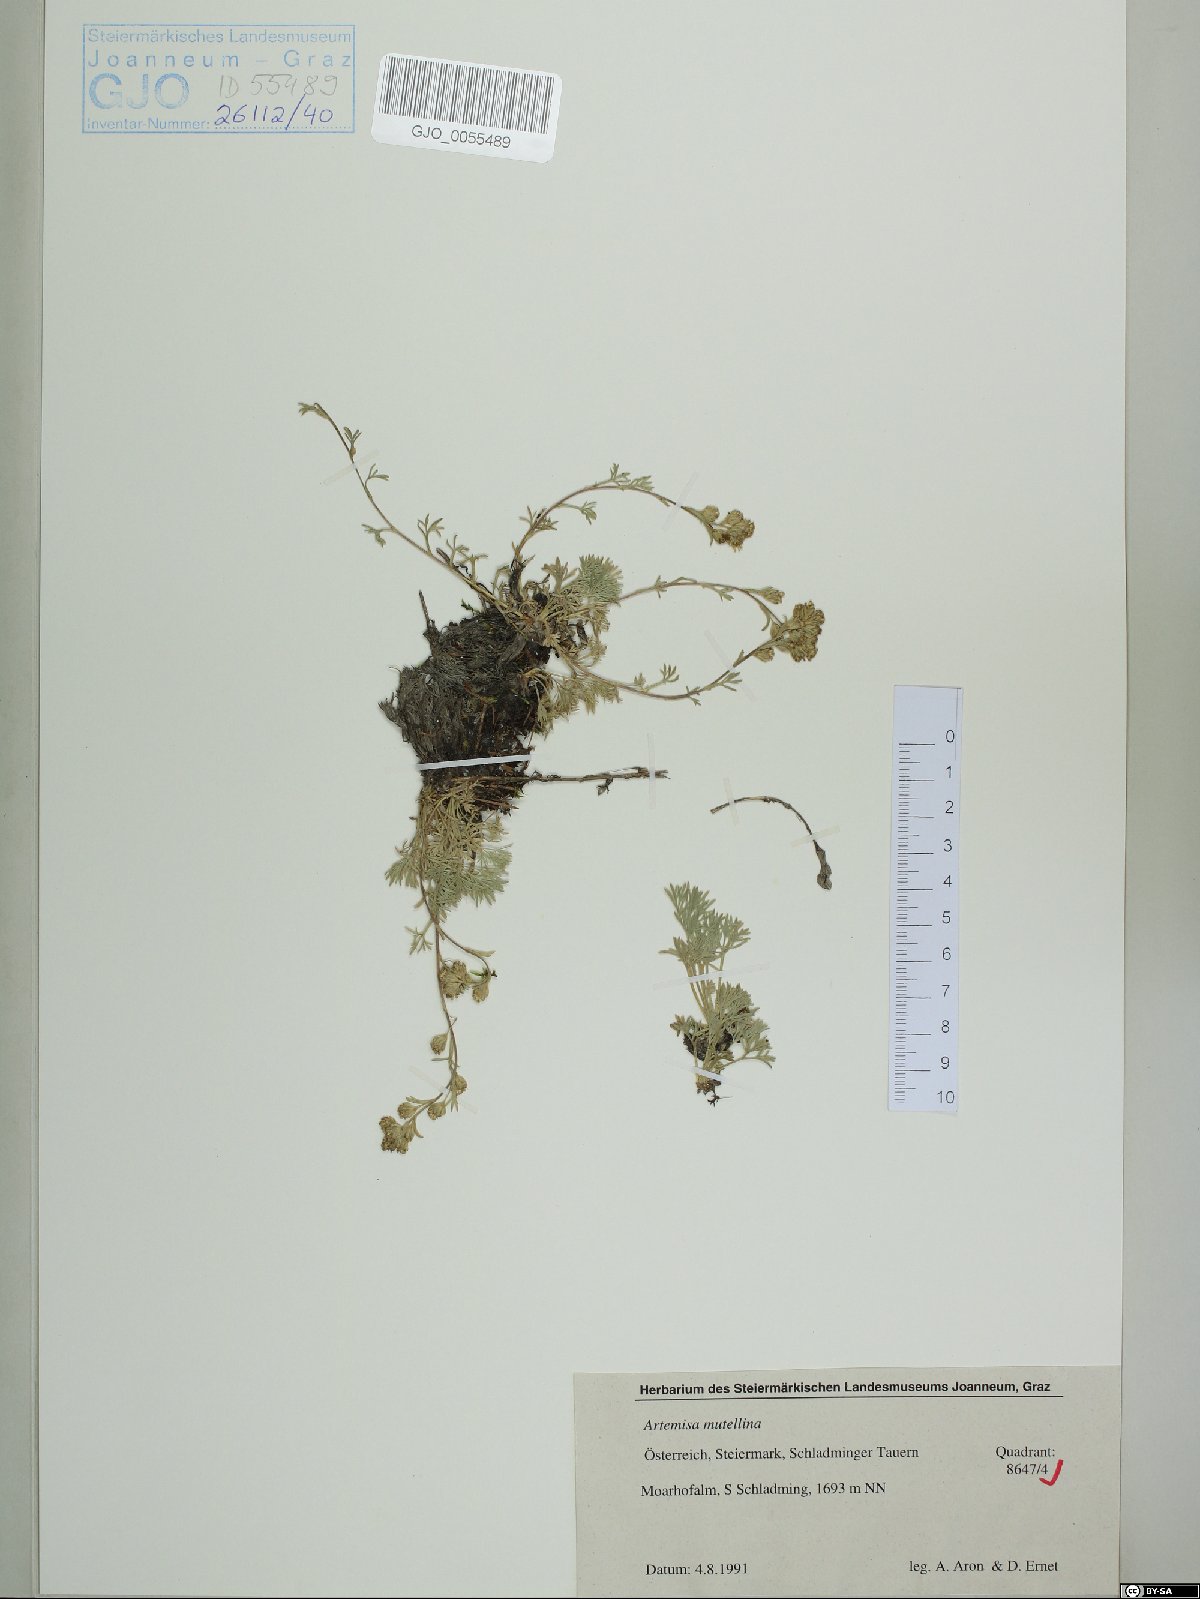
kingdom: Plantae
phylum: Tracheophyta
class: Magnoliopsida
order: Asterales
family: Asteraceae
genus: Artemisia
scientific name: Artemisia mutellina
